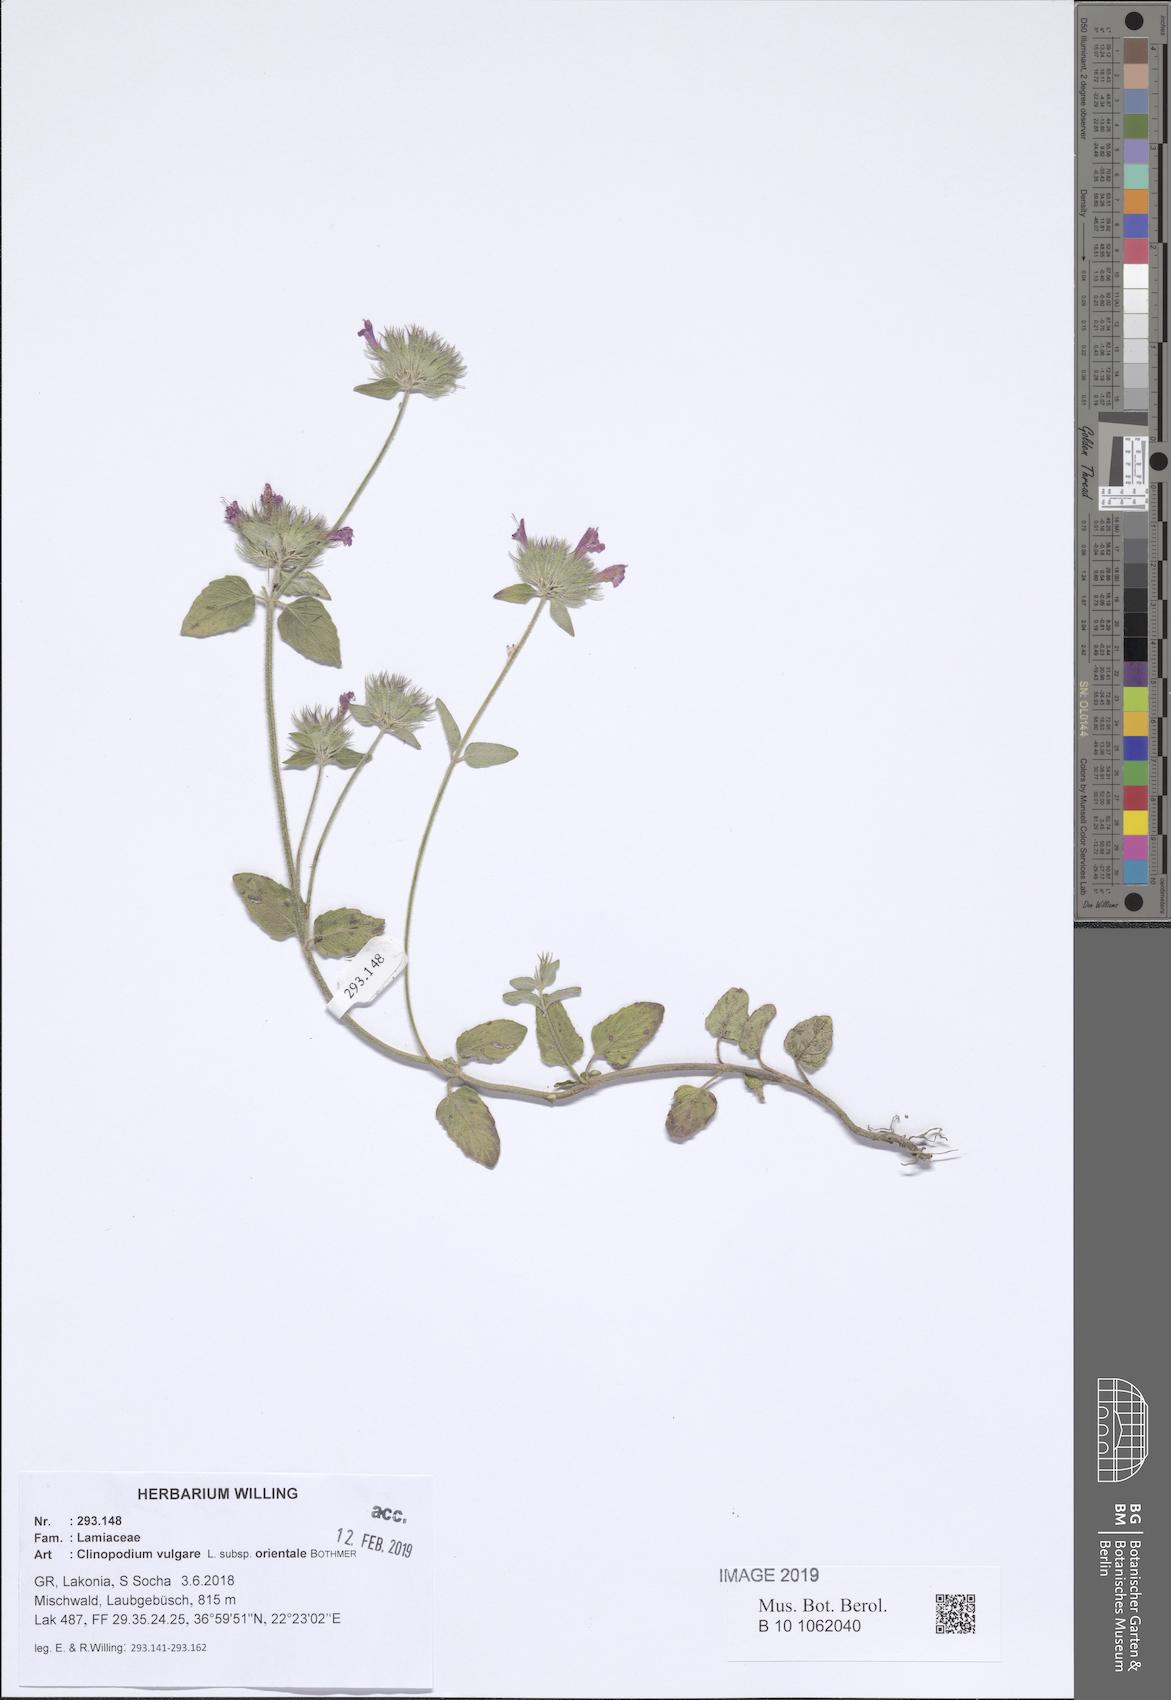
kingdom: Plantae
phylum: Tracheophyta
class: Magnoliopsida
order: Lamiales
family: Lamiaceae
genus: Clinopodium
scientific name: Clinopodium vulgare
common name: Wild basil
